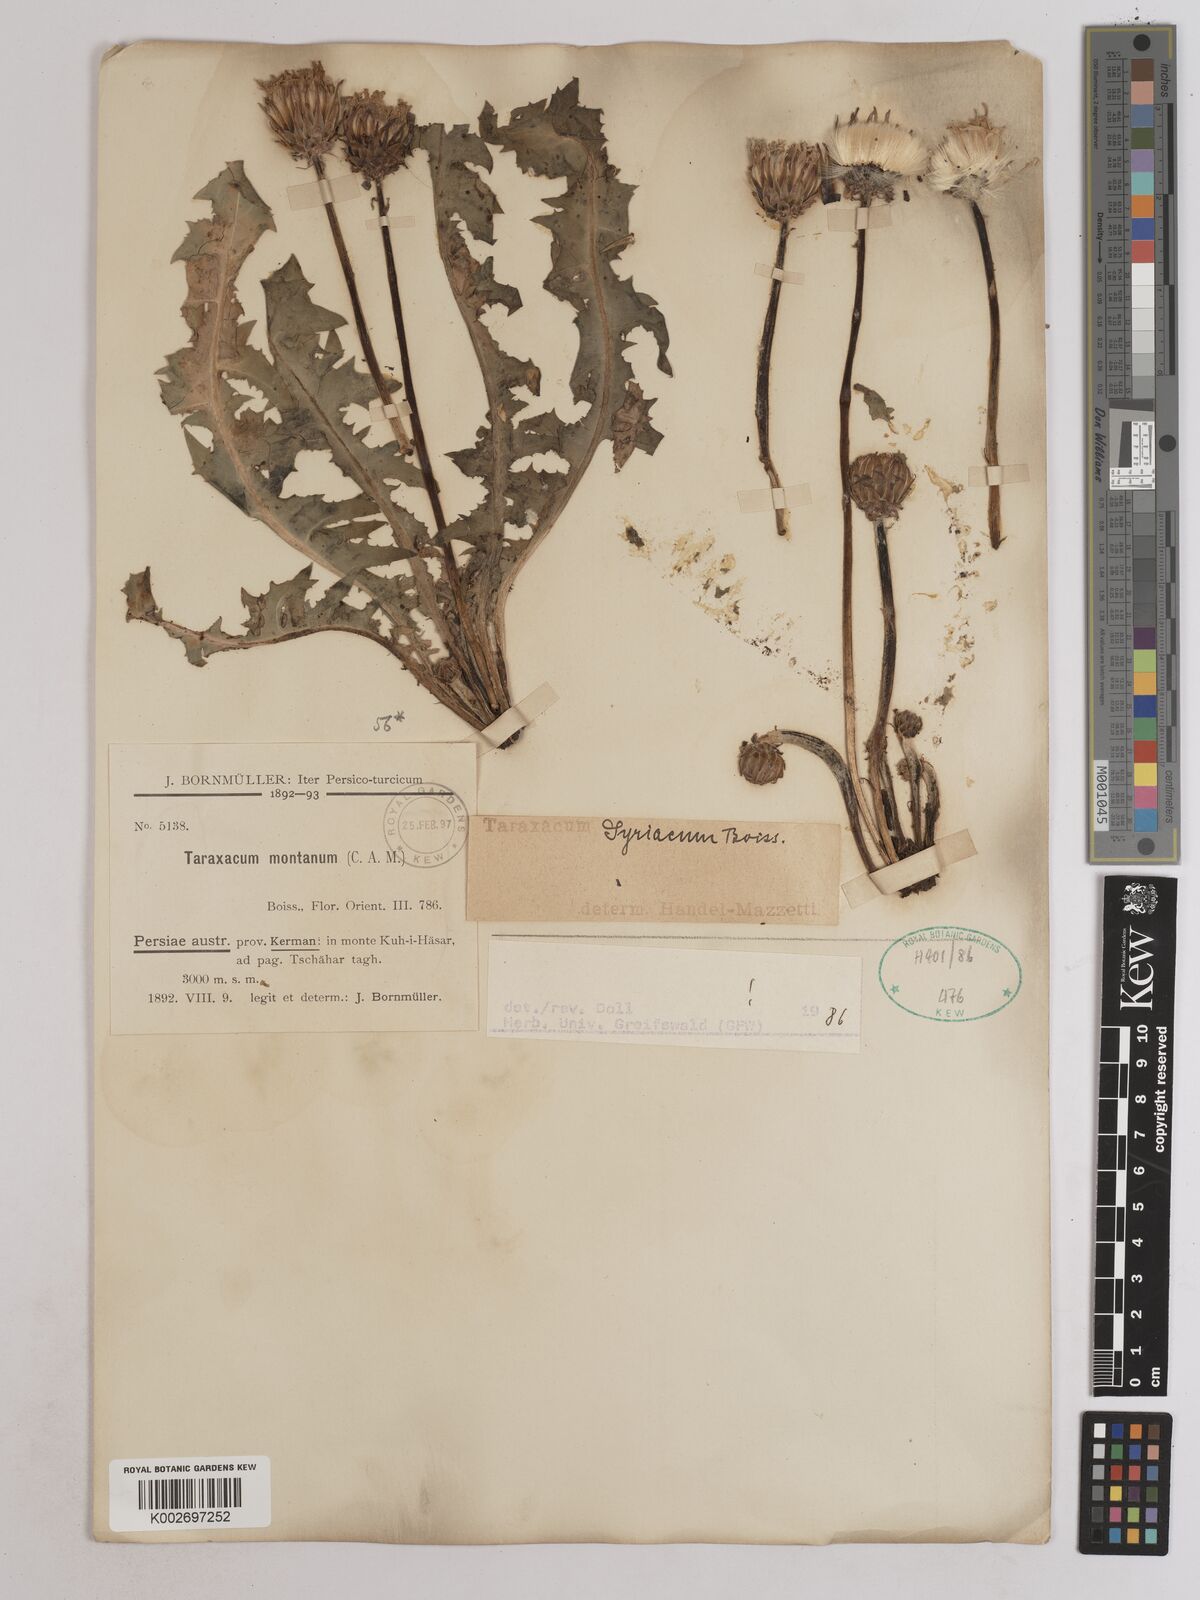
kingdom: Plantae
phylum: Tracheophyta
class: Magnoliopsida
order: Asterales
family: Asteraceae
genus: Taraxacum
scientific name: Taraxacum syriacum
